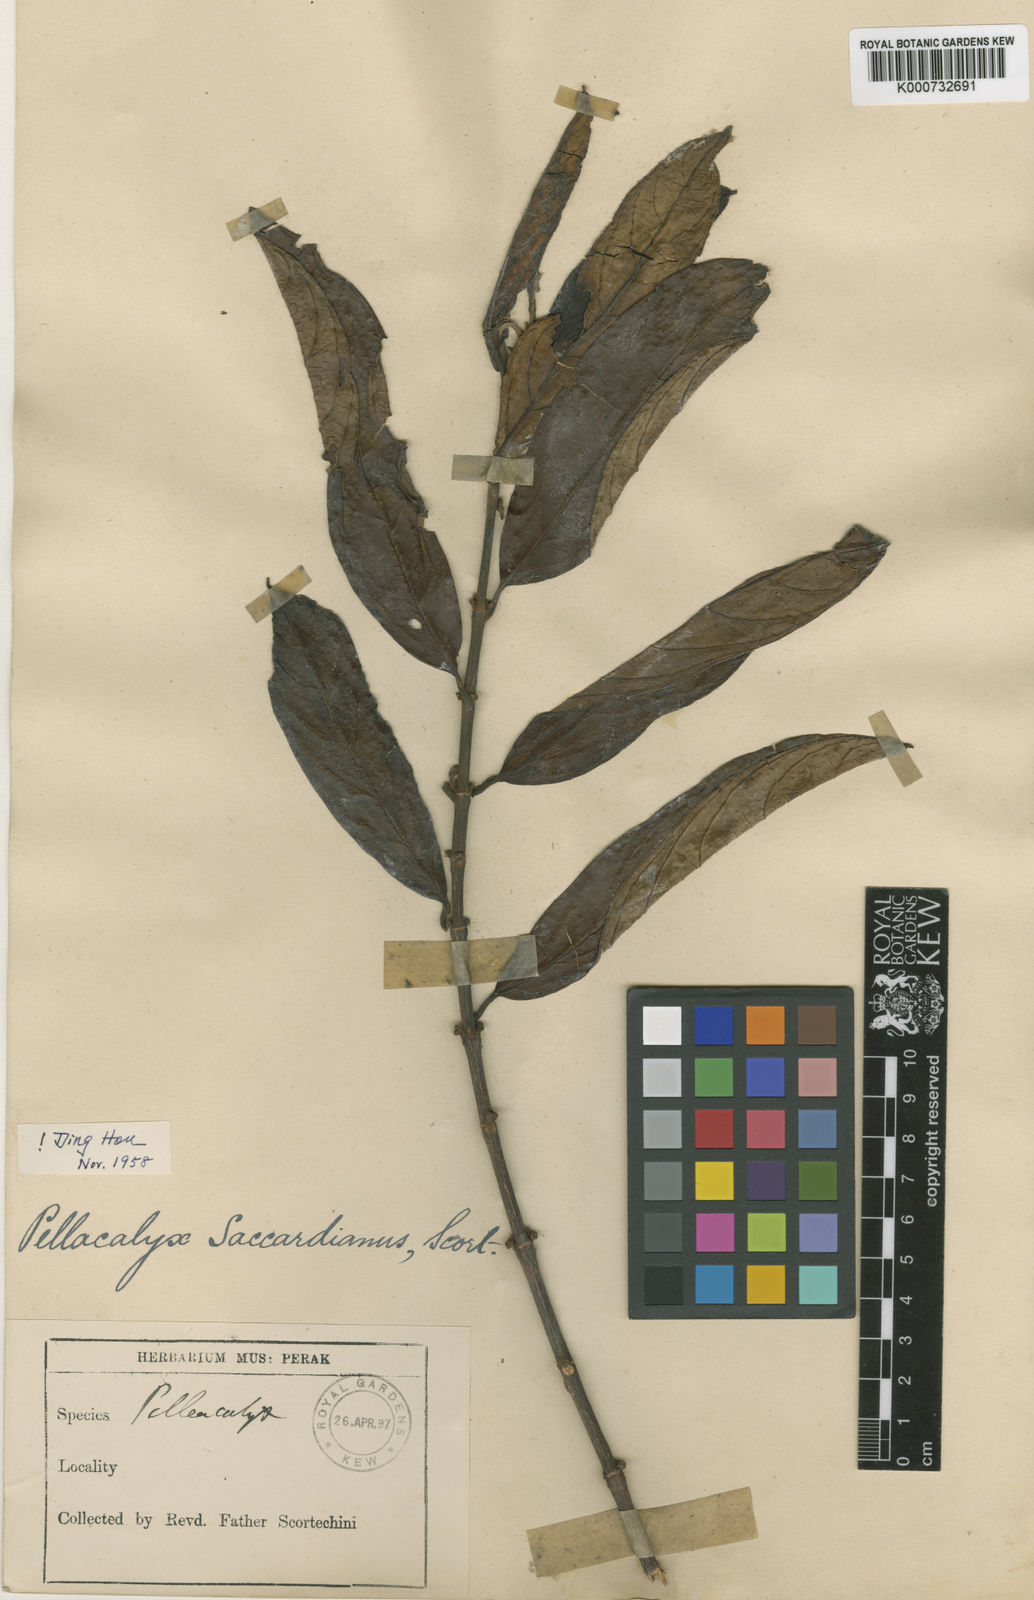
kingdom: Plantae
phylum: Tracheophyta
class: Magnoliopsida
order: Malpighiales
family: Rhizophoraceae
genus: Pellacalyx
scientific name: Pellacalyx saccardianus
